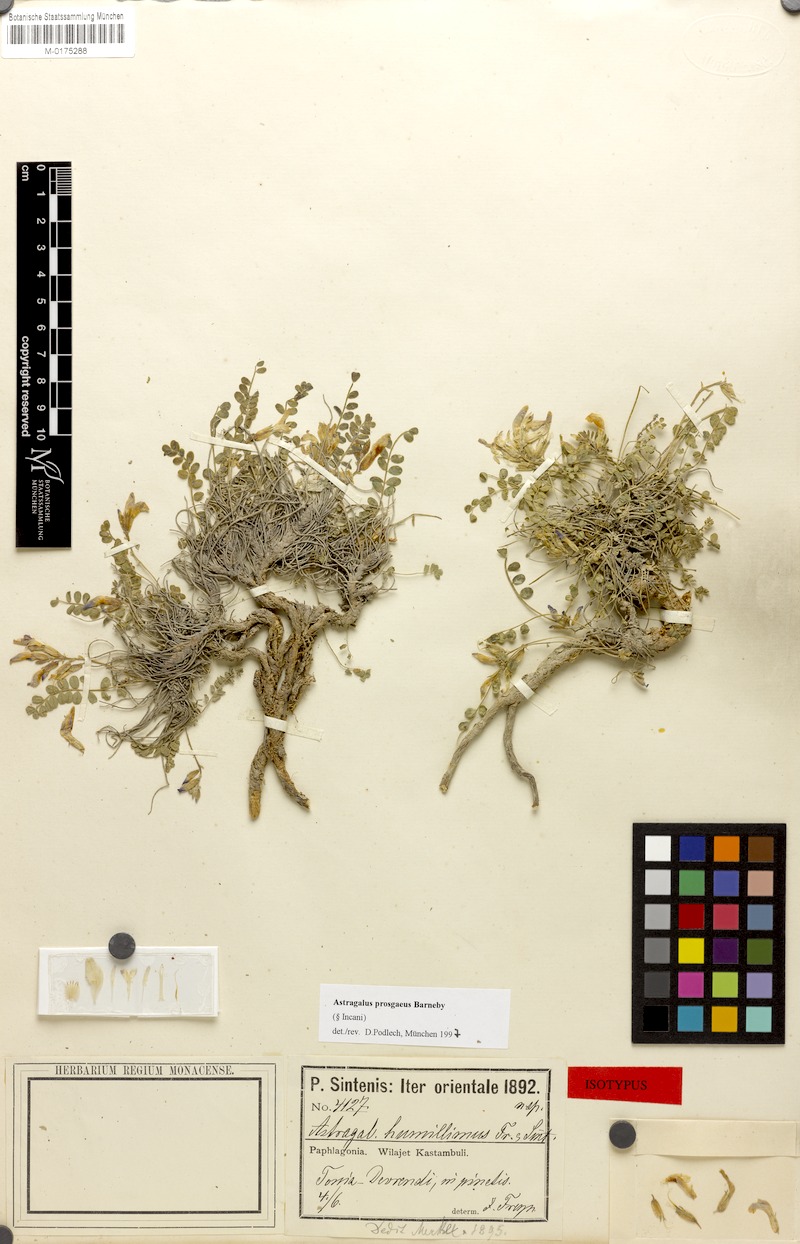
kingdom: Plantae
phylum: Tracheophyta
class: Magnoliopsida
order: Fabales
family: Fabaceae
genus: Astragalus
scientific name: Astragalus prosgaeus
